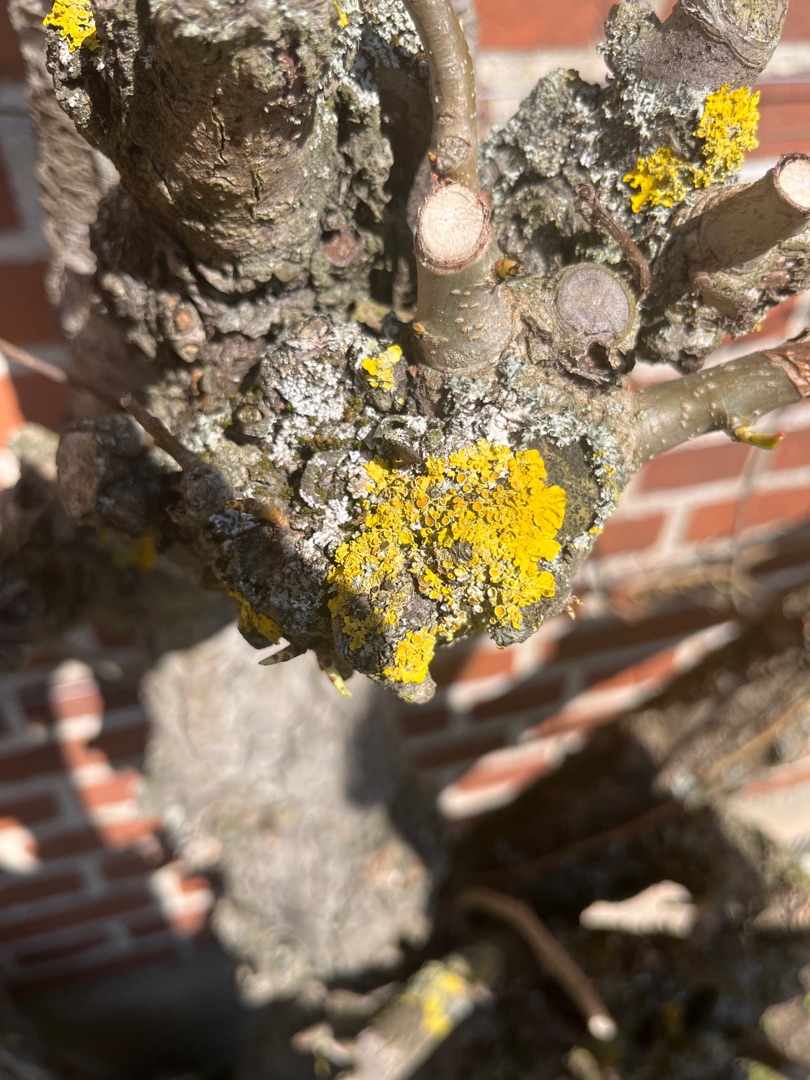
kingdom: Fungi
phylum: Ascomycota
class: Lecanoromycetes
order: Teloschistales
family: Teloschistaceae
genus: Xanthoria
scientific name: Xanthoria parietina
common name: Almindelig væggelav
